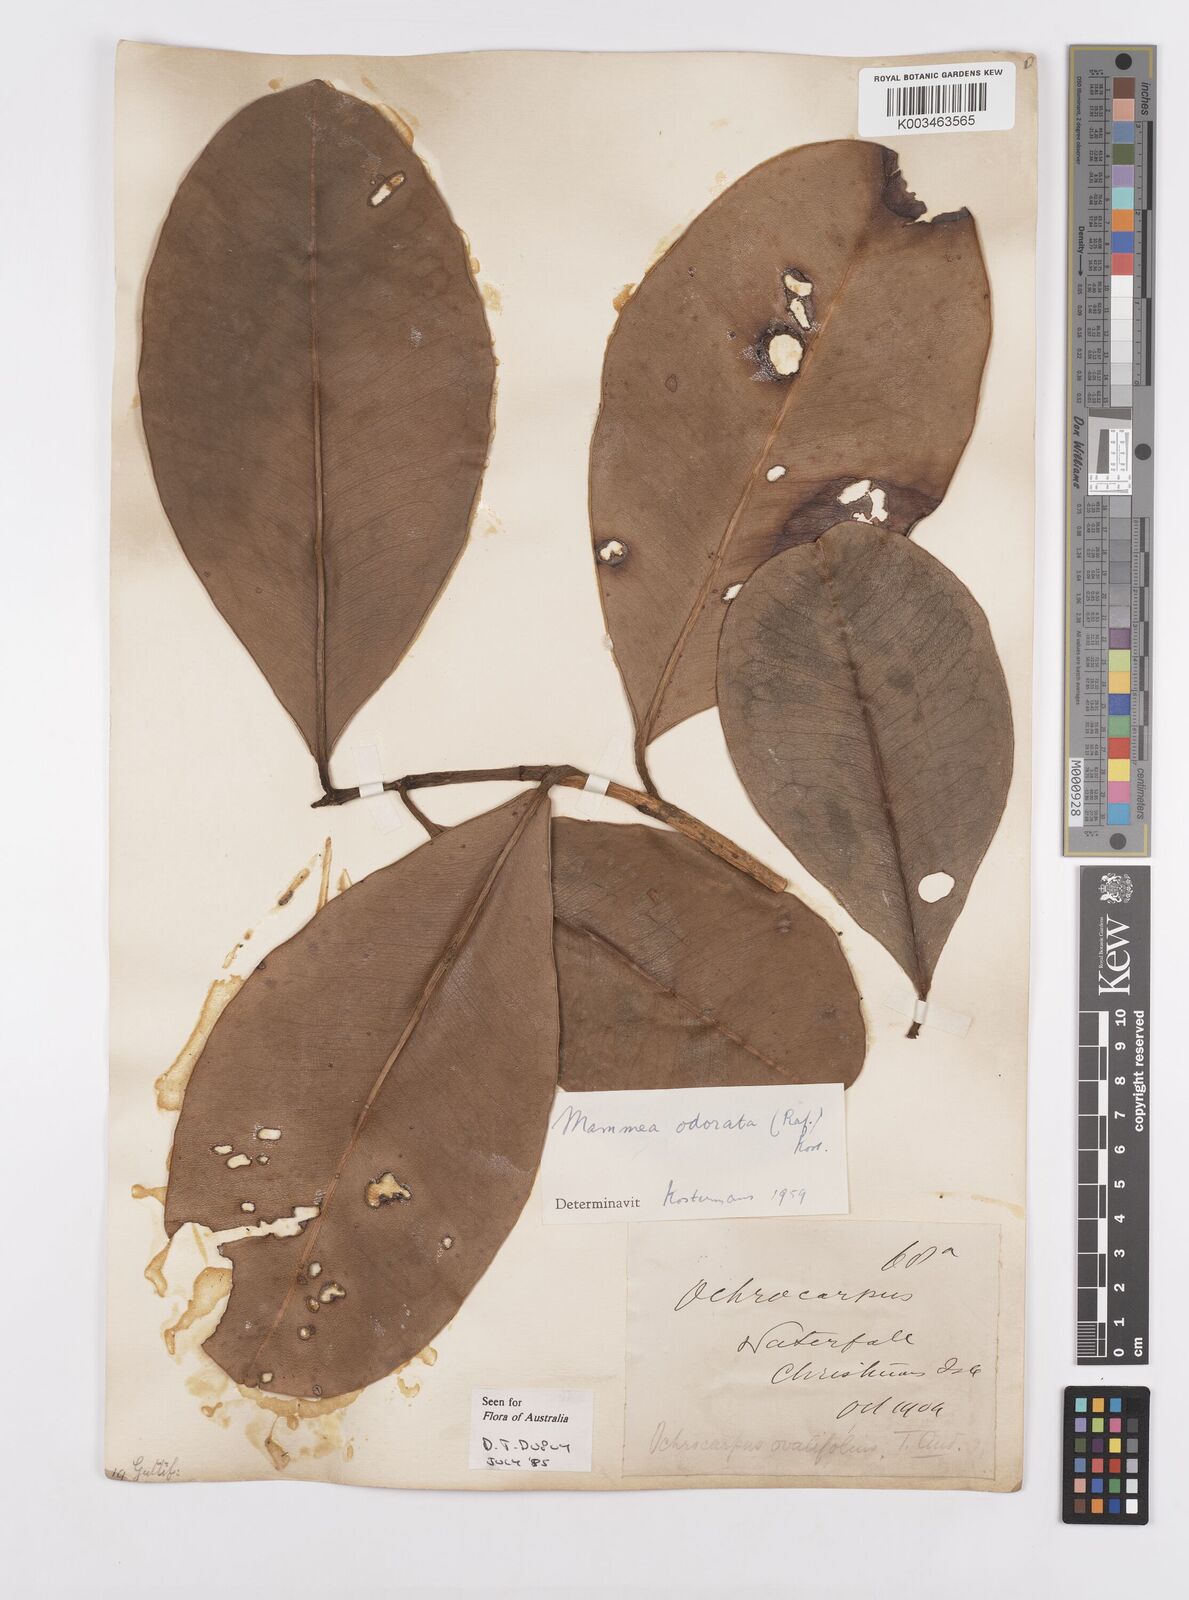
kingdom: Plantae
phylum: Tracheophyta
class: Magnoliopsida
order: Malpighiales
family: Calophyllaceae
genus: Mammea
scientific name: Mammea odorata
